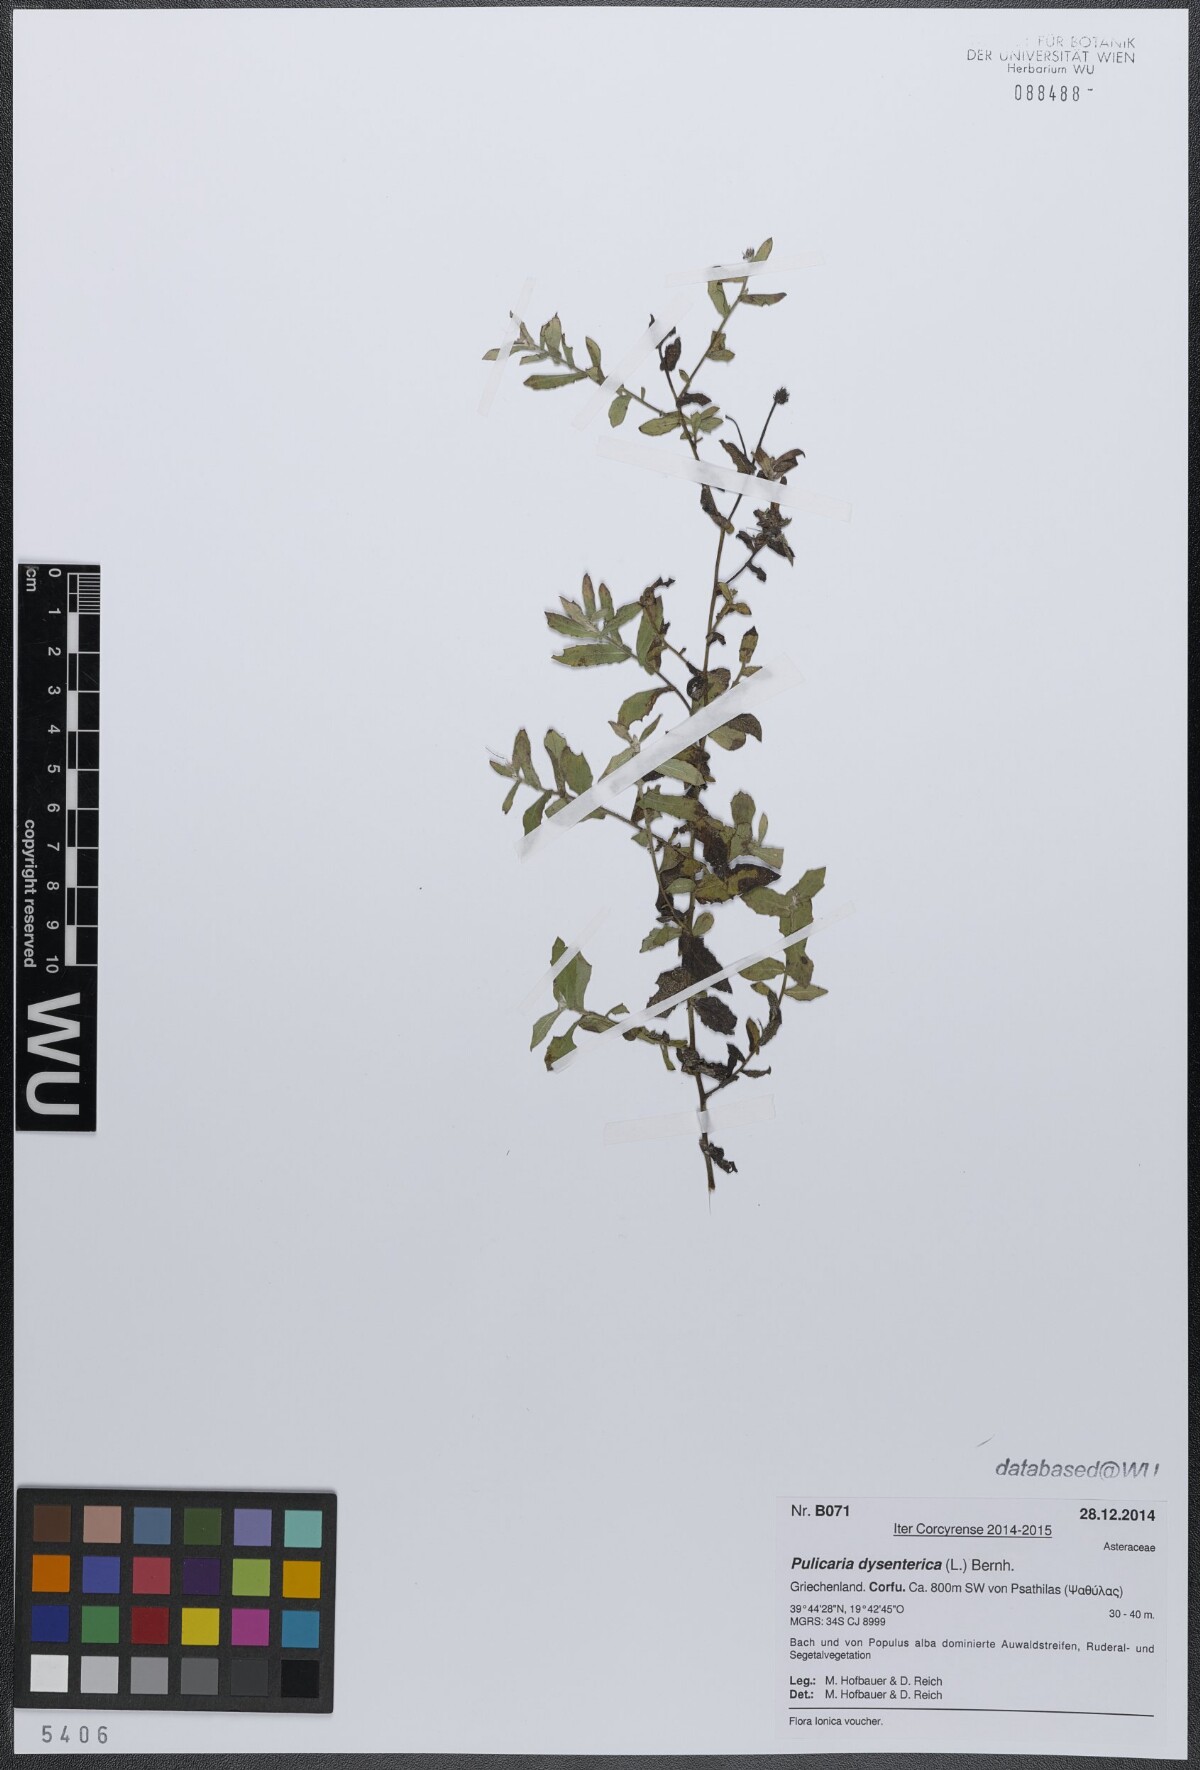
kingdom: Plantae
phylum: Tracheophyta
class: Magnoliopsida
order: Asterales
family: Asteraceae
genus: Pulicaria
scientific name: Pulicaria dysenterica
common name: Common fleabane
